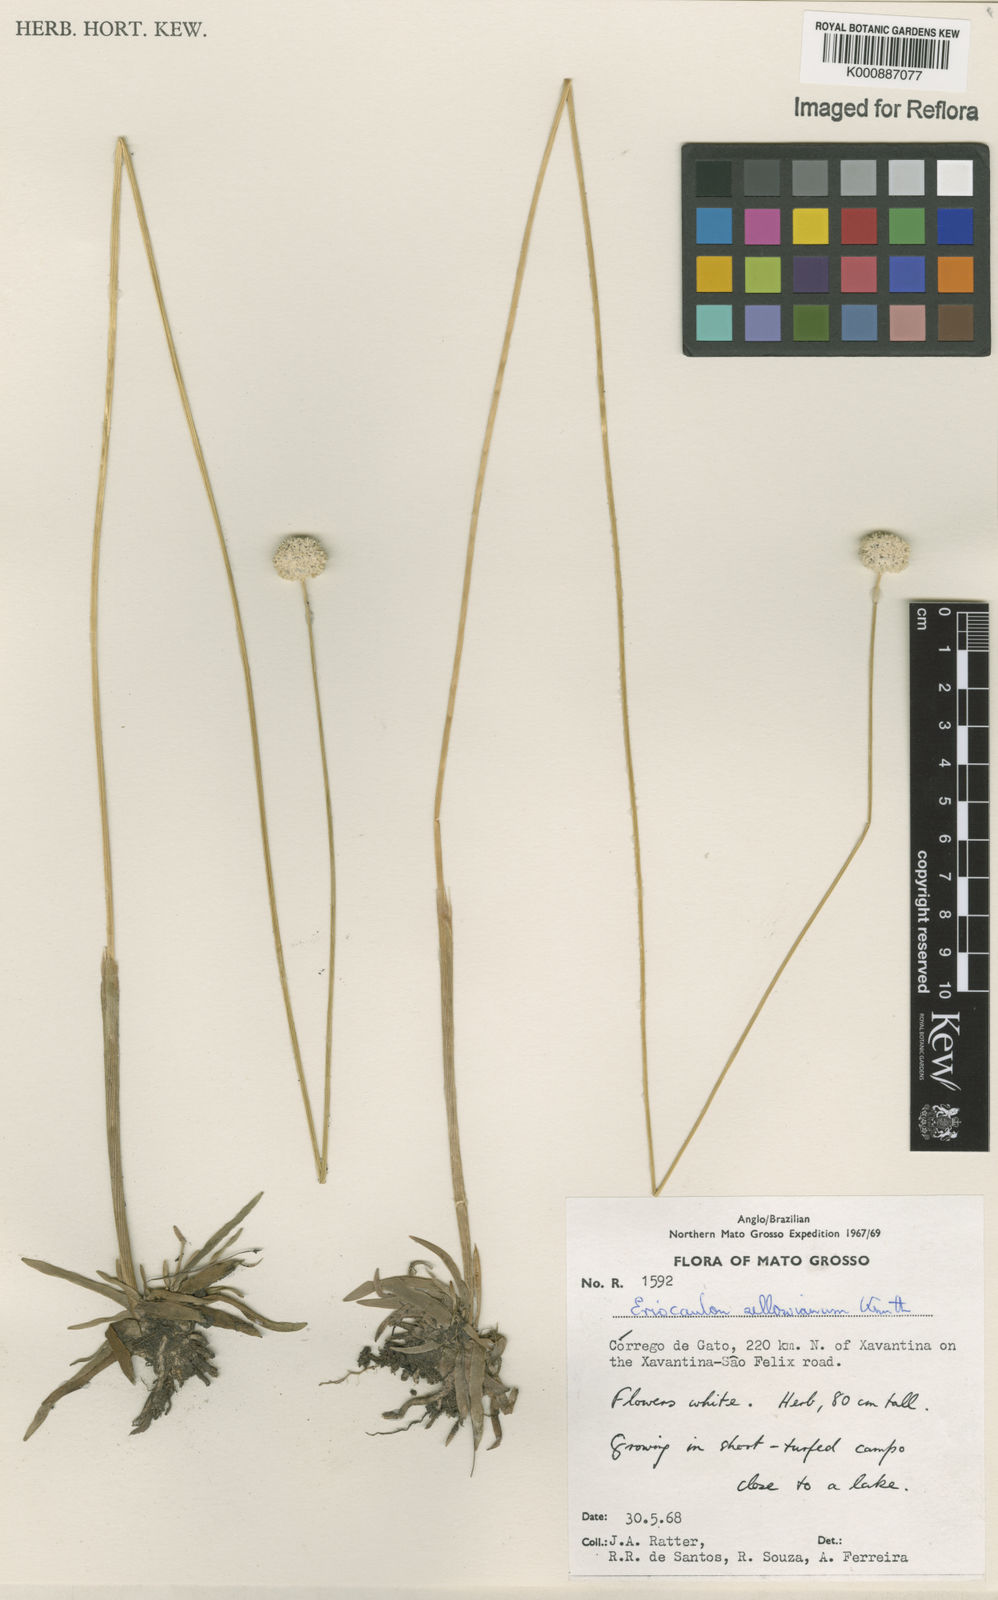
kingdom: Plantae
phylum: Tracheophyta
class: Liliopsida
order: Poales
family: Eriocaulaceae
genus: Eriocaulon
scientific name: Eriocaulon sellowianum
